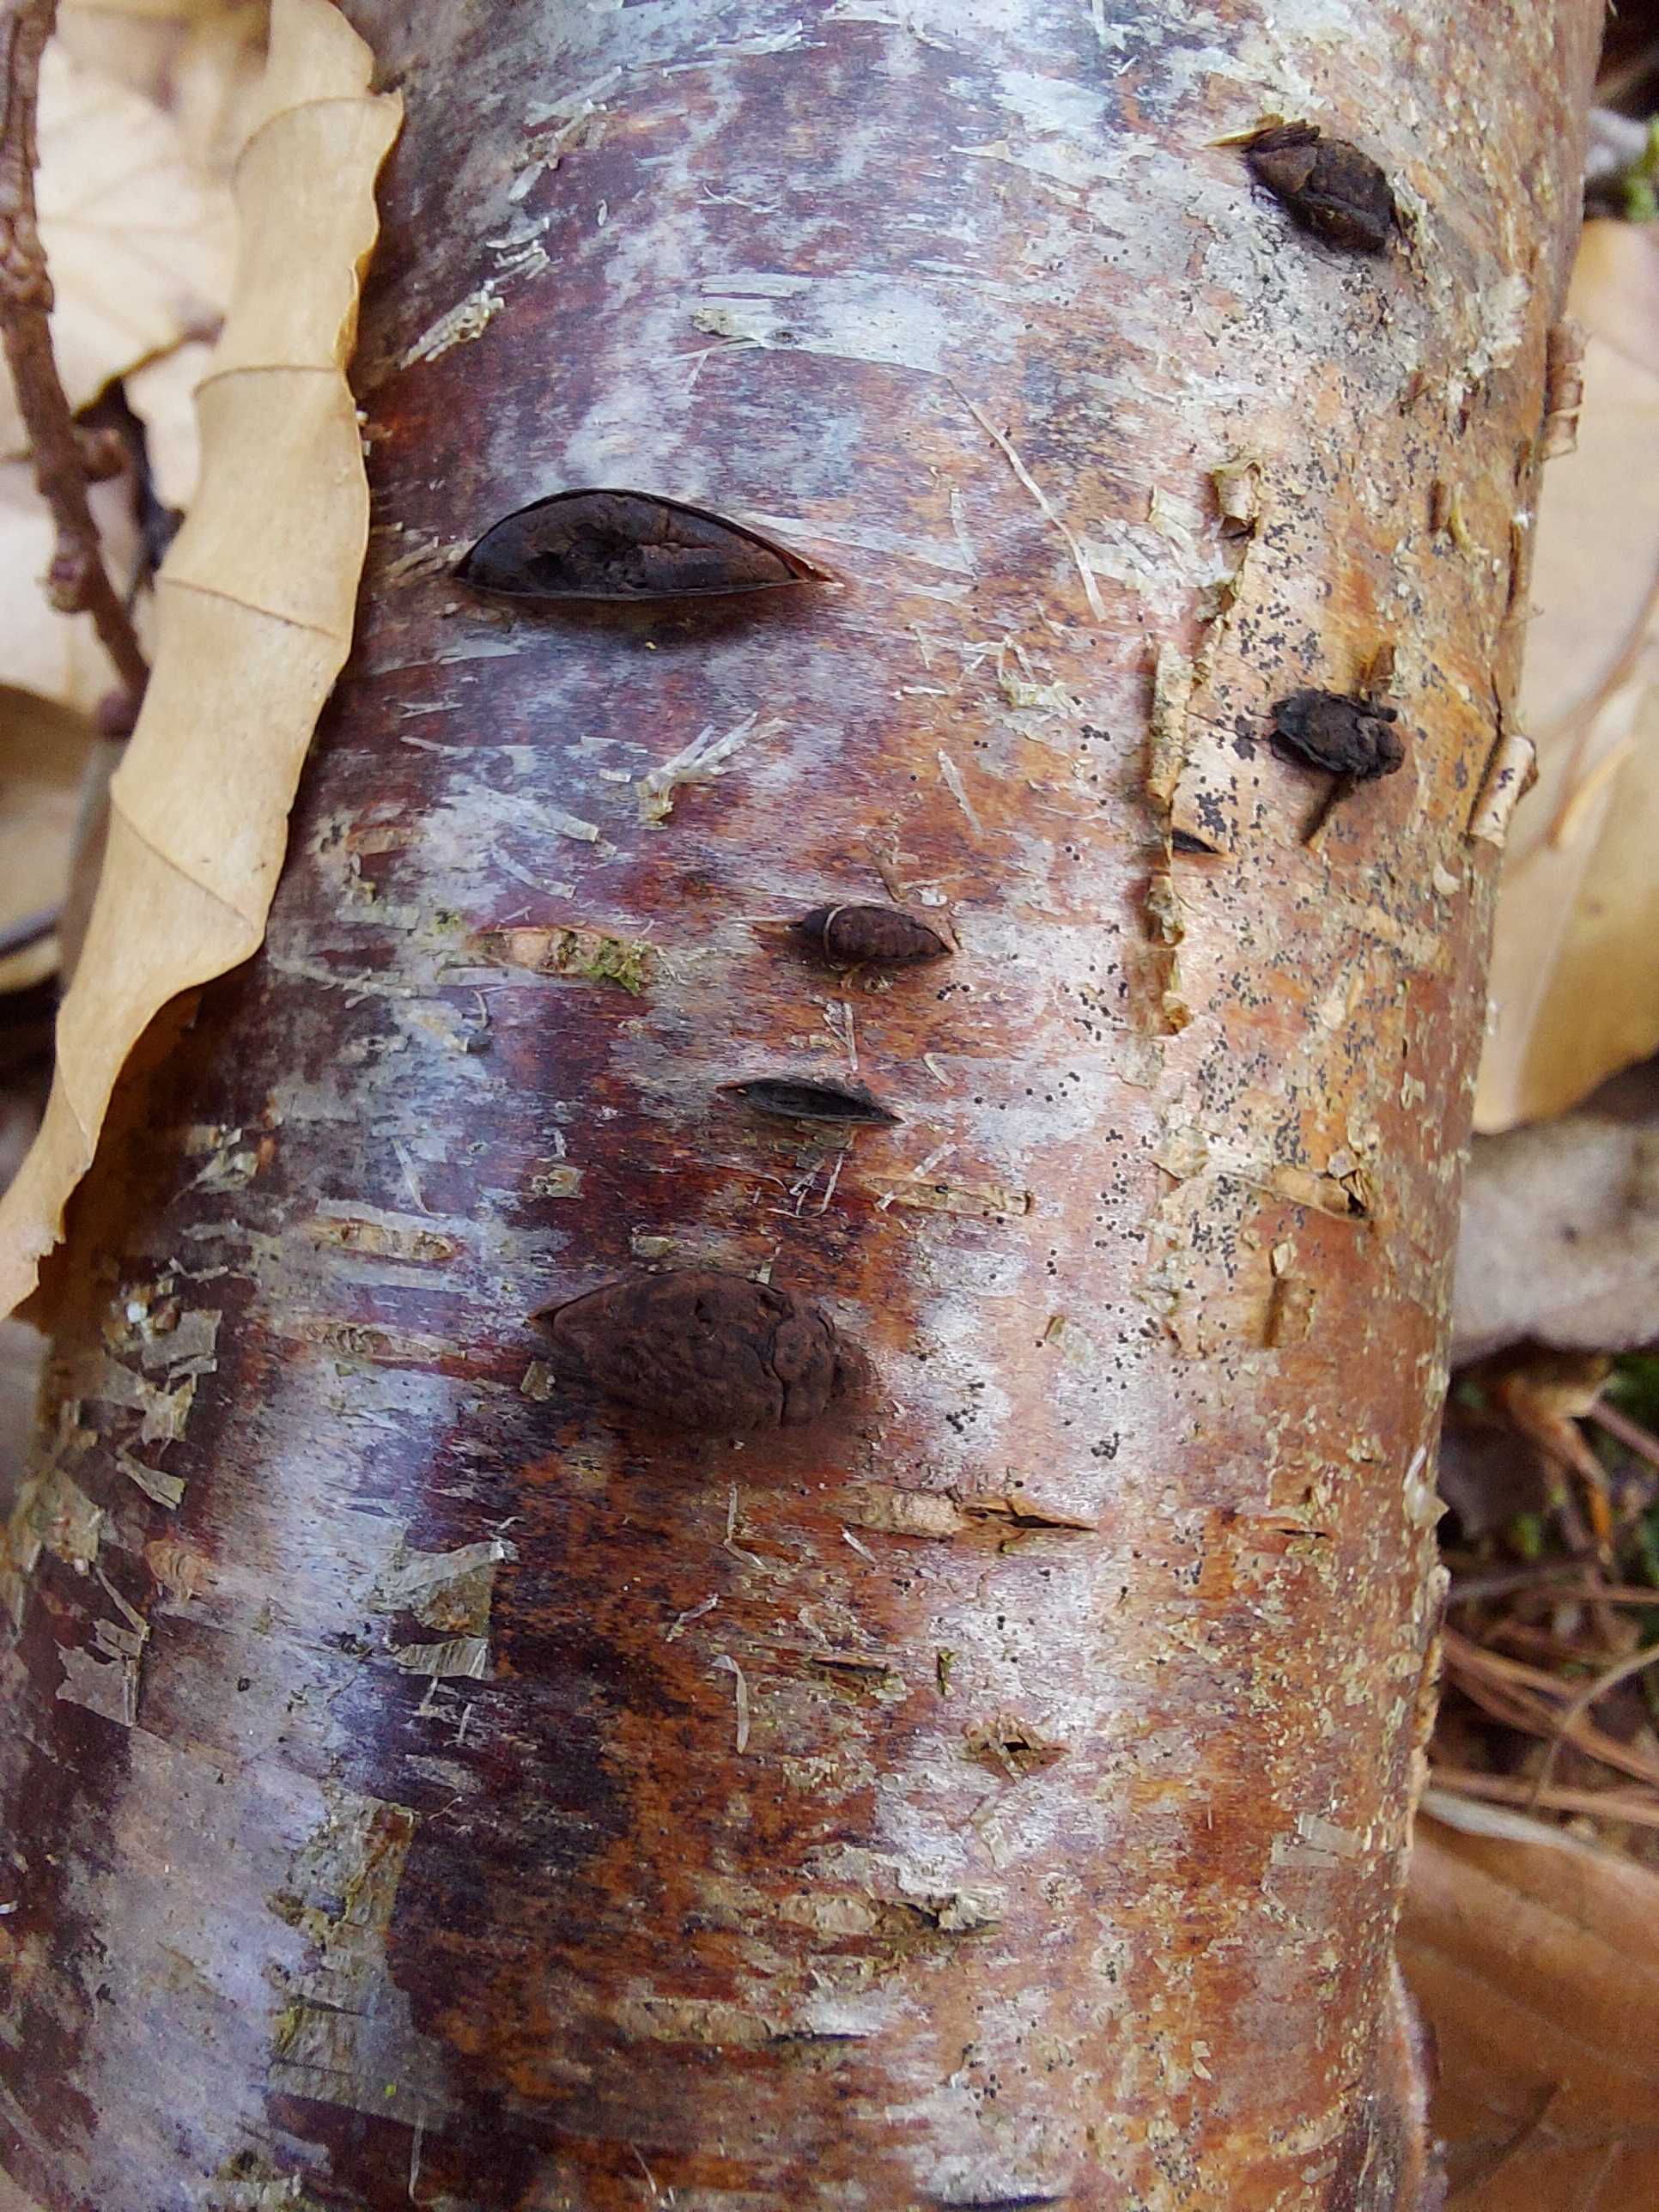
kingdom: Fungi
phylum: Ascomycota
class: Sordariomycetes
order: Xylariales
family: Hypoxylaceae
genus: Jackrogersella
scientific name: Jackrogersella multiformis
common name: foranderlig kulbær
